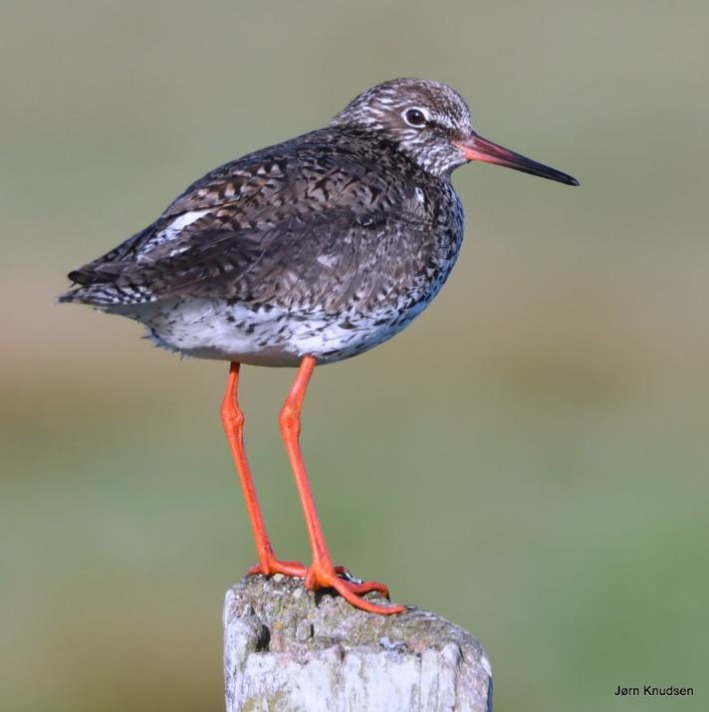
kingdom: Animalia
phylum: Chordata
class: Aves
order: Charadriiformes
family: Scolopacidae
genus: Tringa
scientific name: Tringa totanus
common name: Rødben
